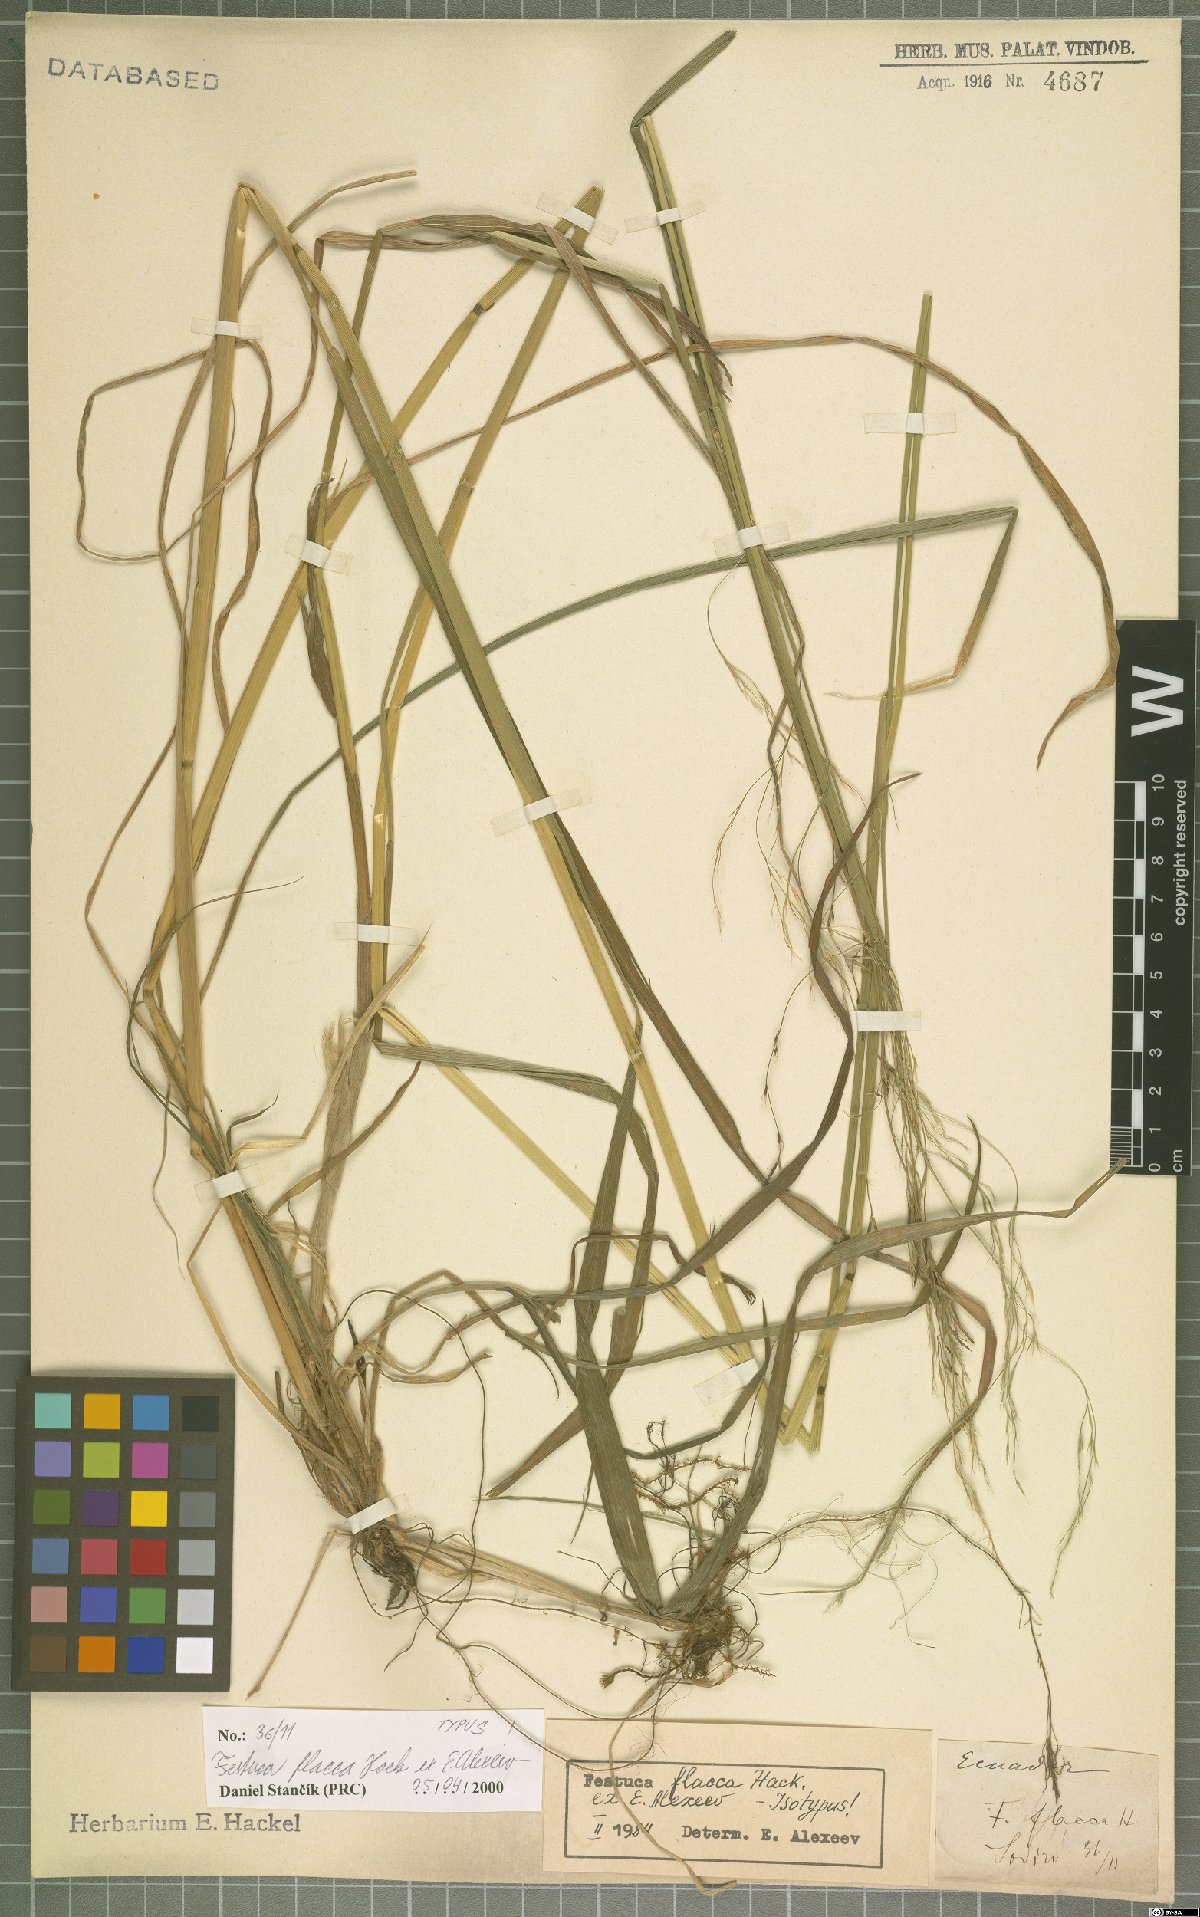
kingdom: Plantae
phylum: Tracheophyta
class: Liliopsida
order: Poales
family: Poaceae
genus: Festuca
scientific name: Festuca flacca
